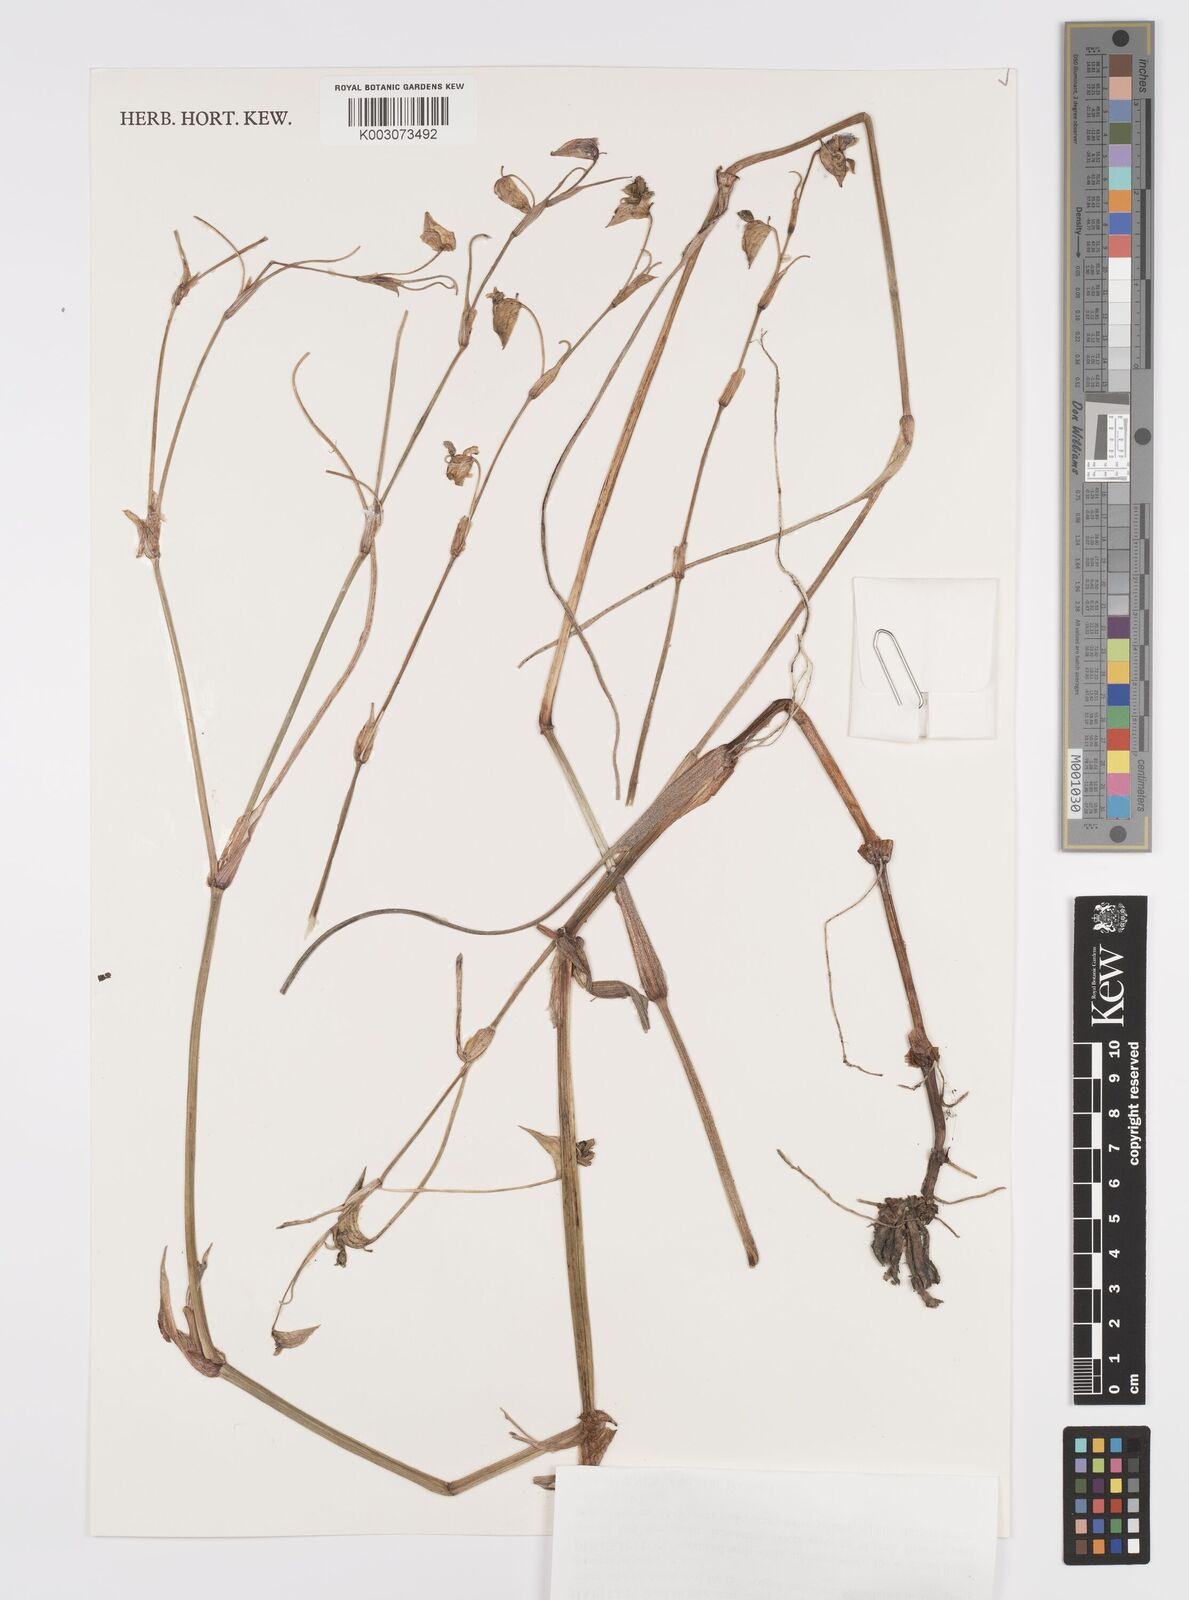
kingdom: Plantae
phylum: Tracheophyta
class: Liliopsida
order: Commelinales
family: Commelinaceae
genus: Commelina
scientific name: Commelina fluviatilis
